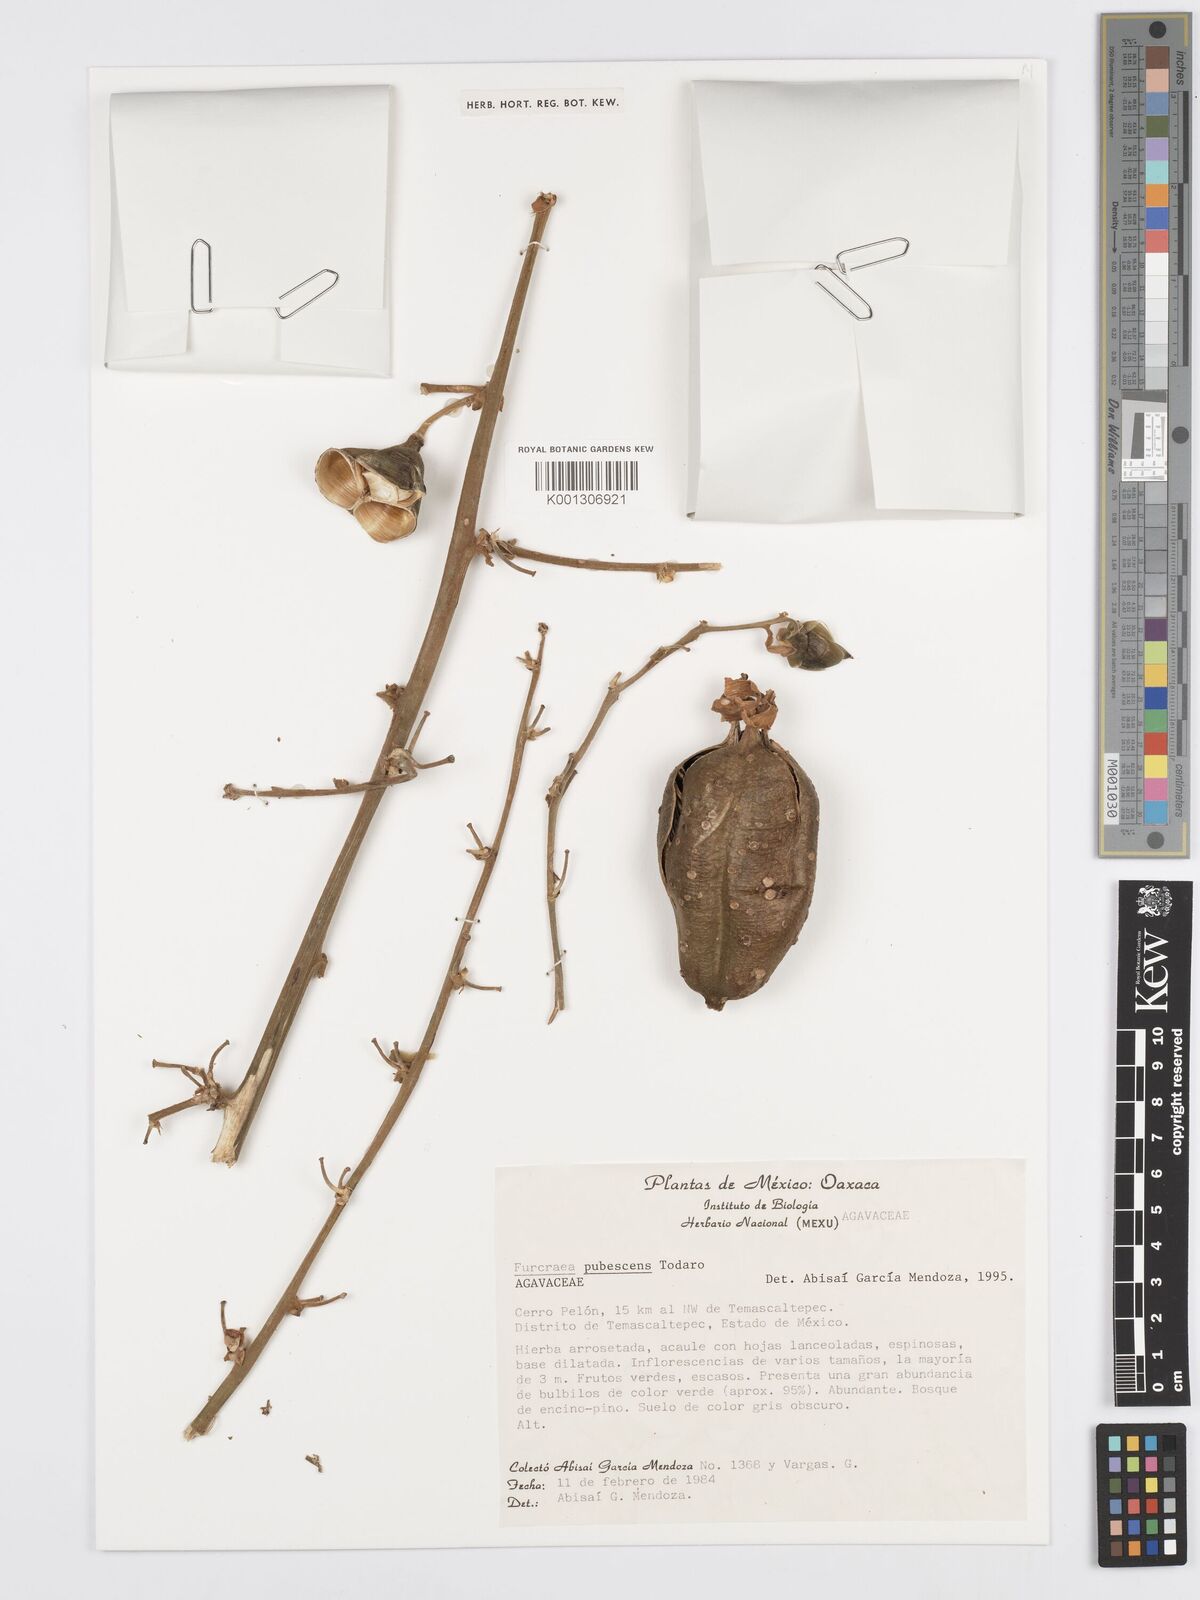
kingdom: Plantae
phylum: Tracheophyta
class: Liliopsida
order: Asparagales
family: Asparagaceae
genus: Furcraea
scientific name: Furcraea pubescens
